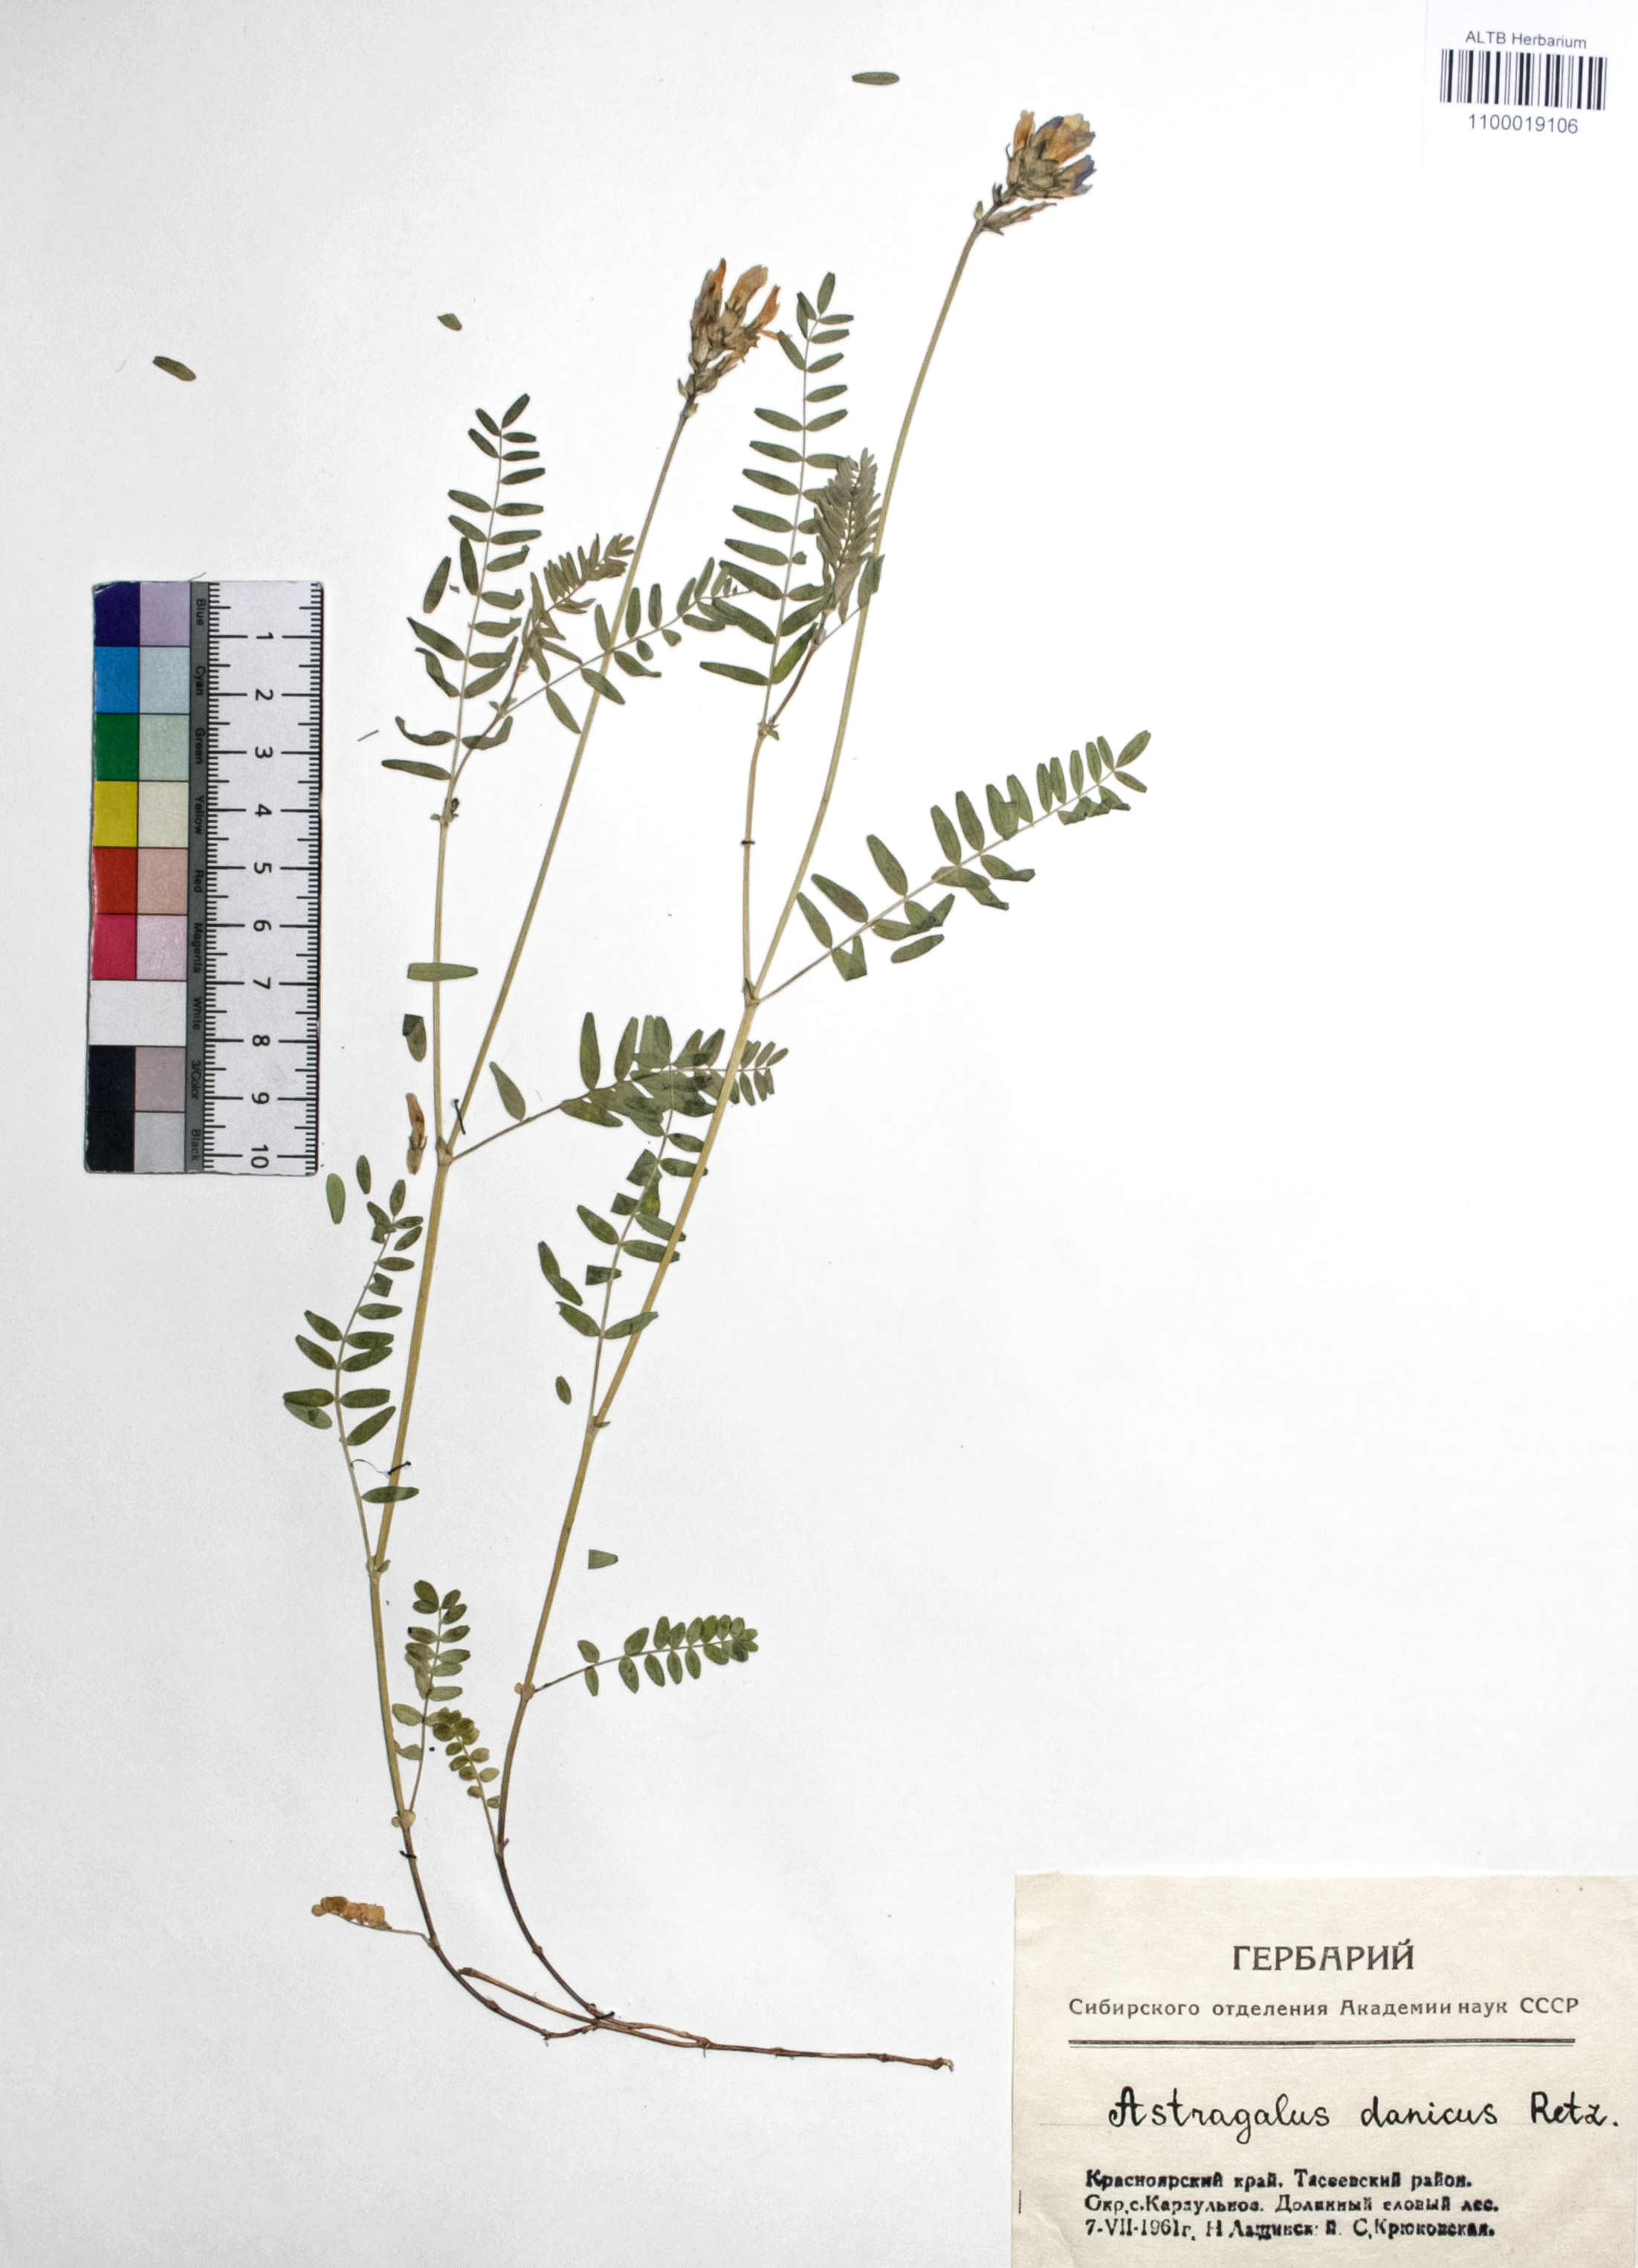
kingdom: Plantae
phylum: Tracheophyta
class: Magnoliopsida
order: Fabales
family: Fabaceae
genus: Astragalus
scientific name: Astragalus danicus
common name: Purple milk-vetch
